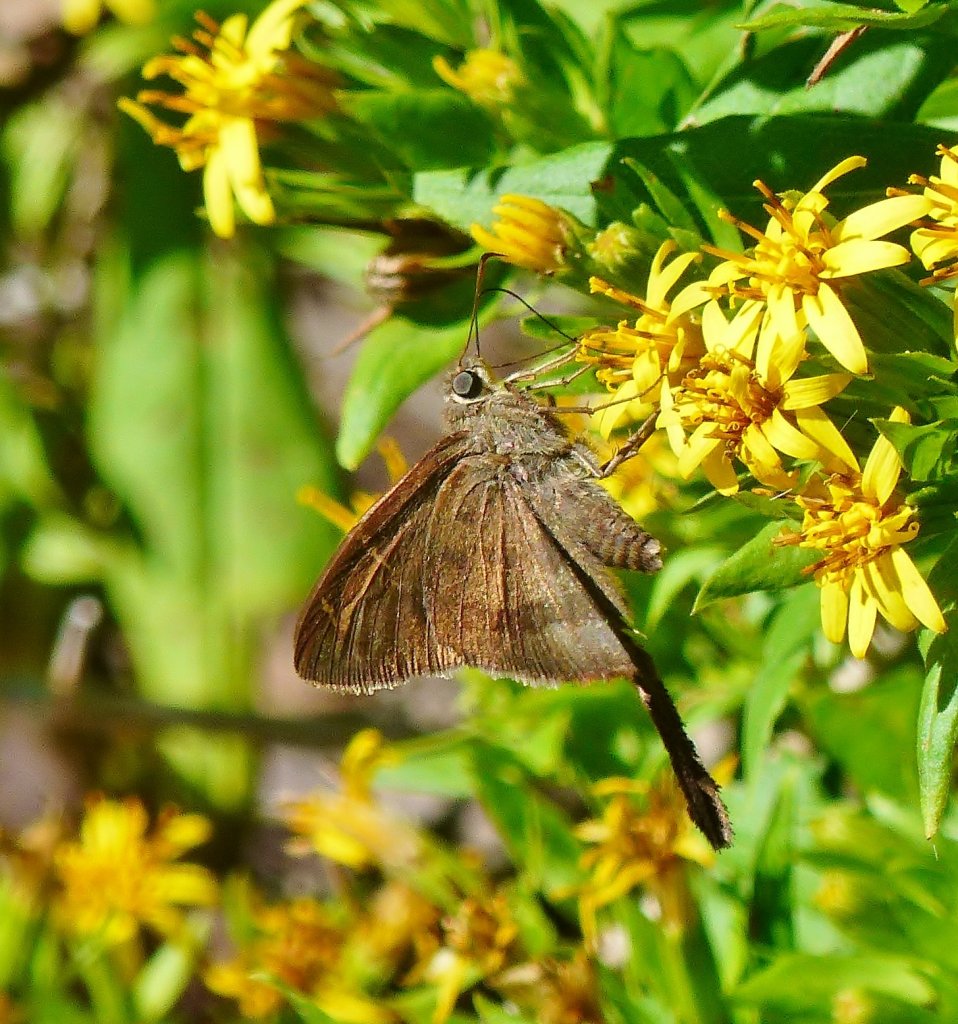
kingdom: Animalia
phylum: Arthropoda
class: Insecta
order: Lepidoptera
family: Hesperiidae
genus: Urbanus
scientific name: Urbanus procne
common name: Brown Longtail
